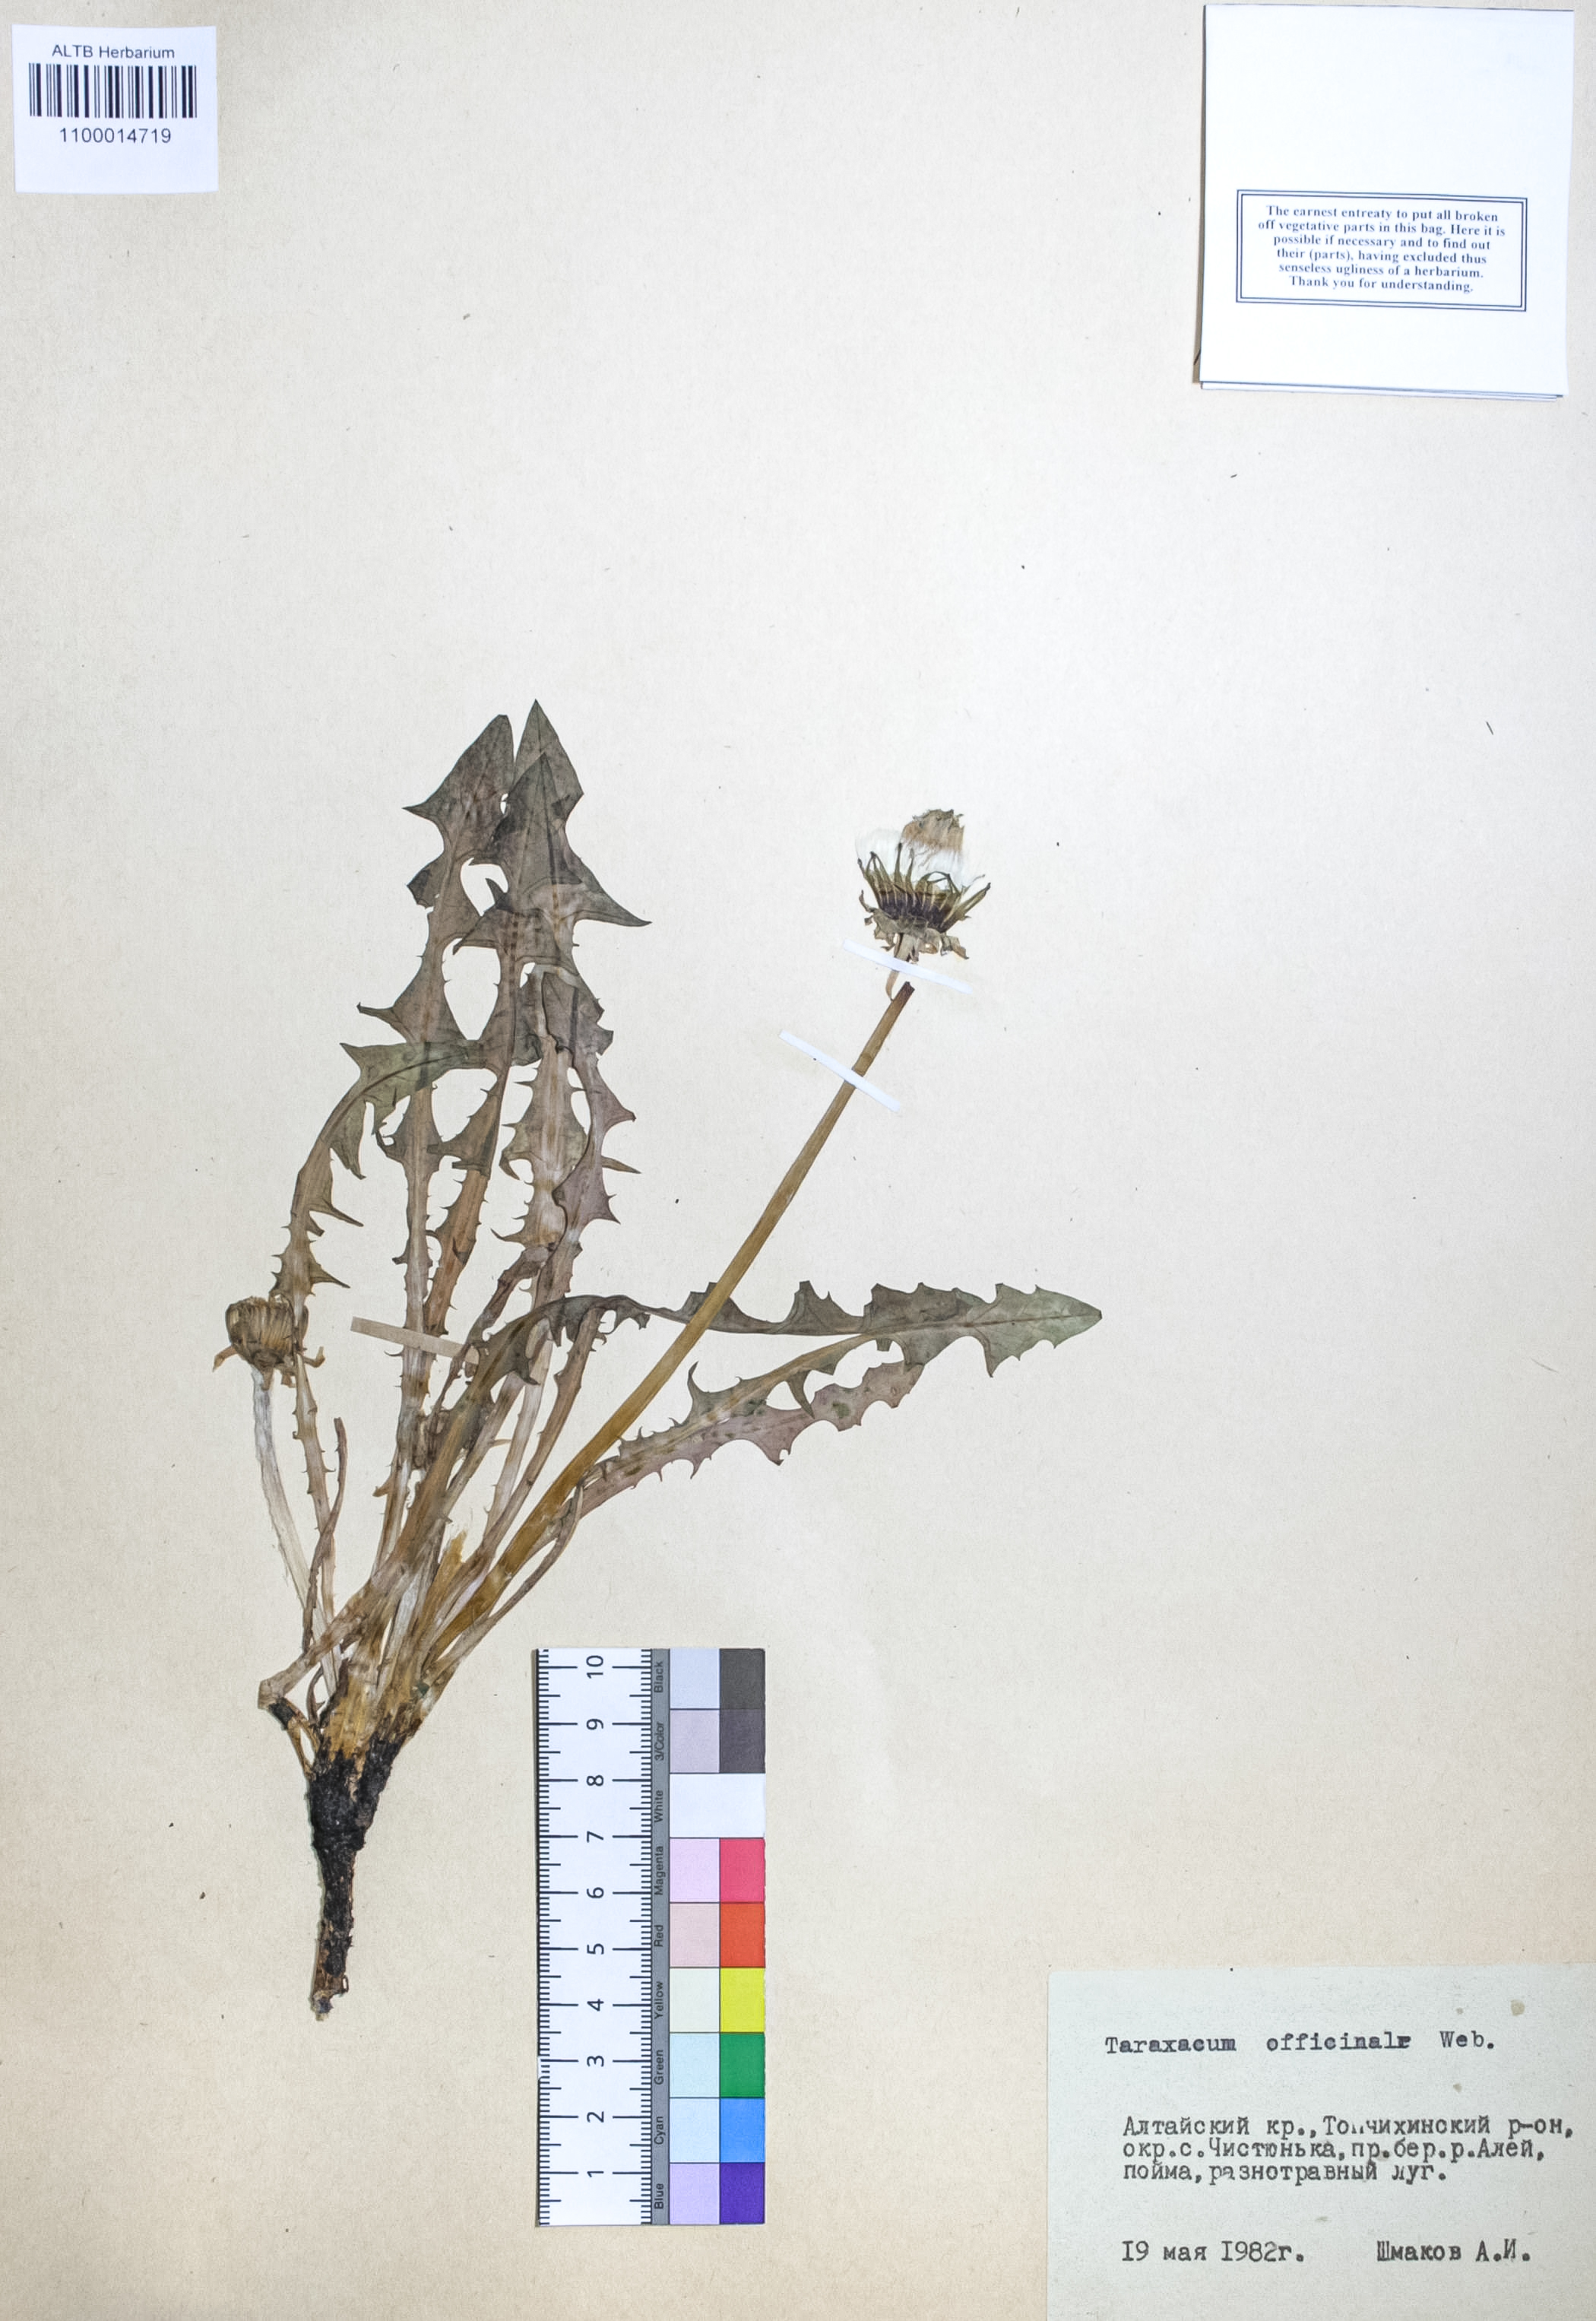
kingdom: Plantae
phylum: Tracheophyta
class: Magnoliopsida
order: Asterales
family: Asteraceae
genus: Taraxacum
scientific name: Taraxacum officinale
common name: Common dandelion
